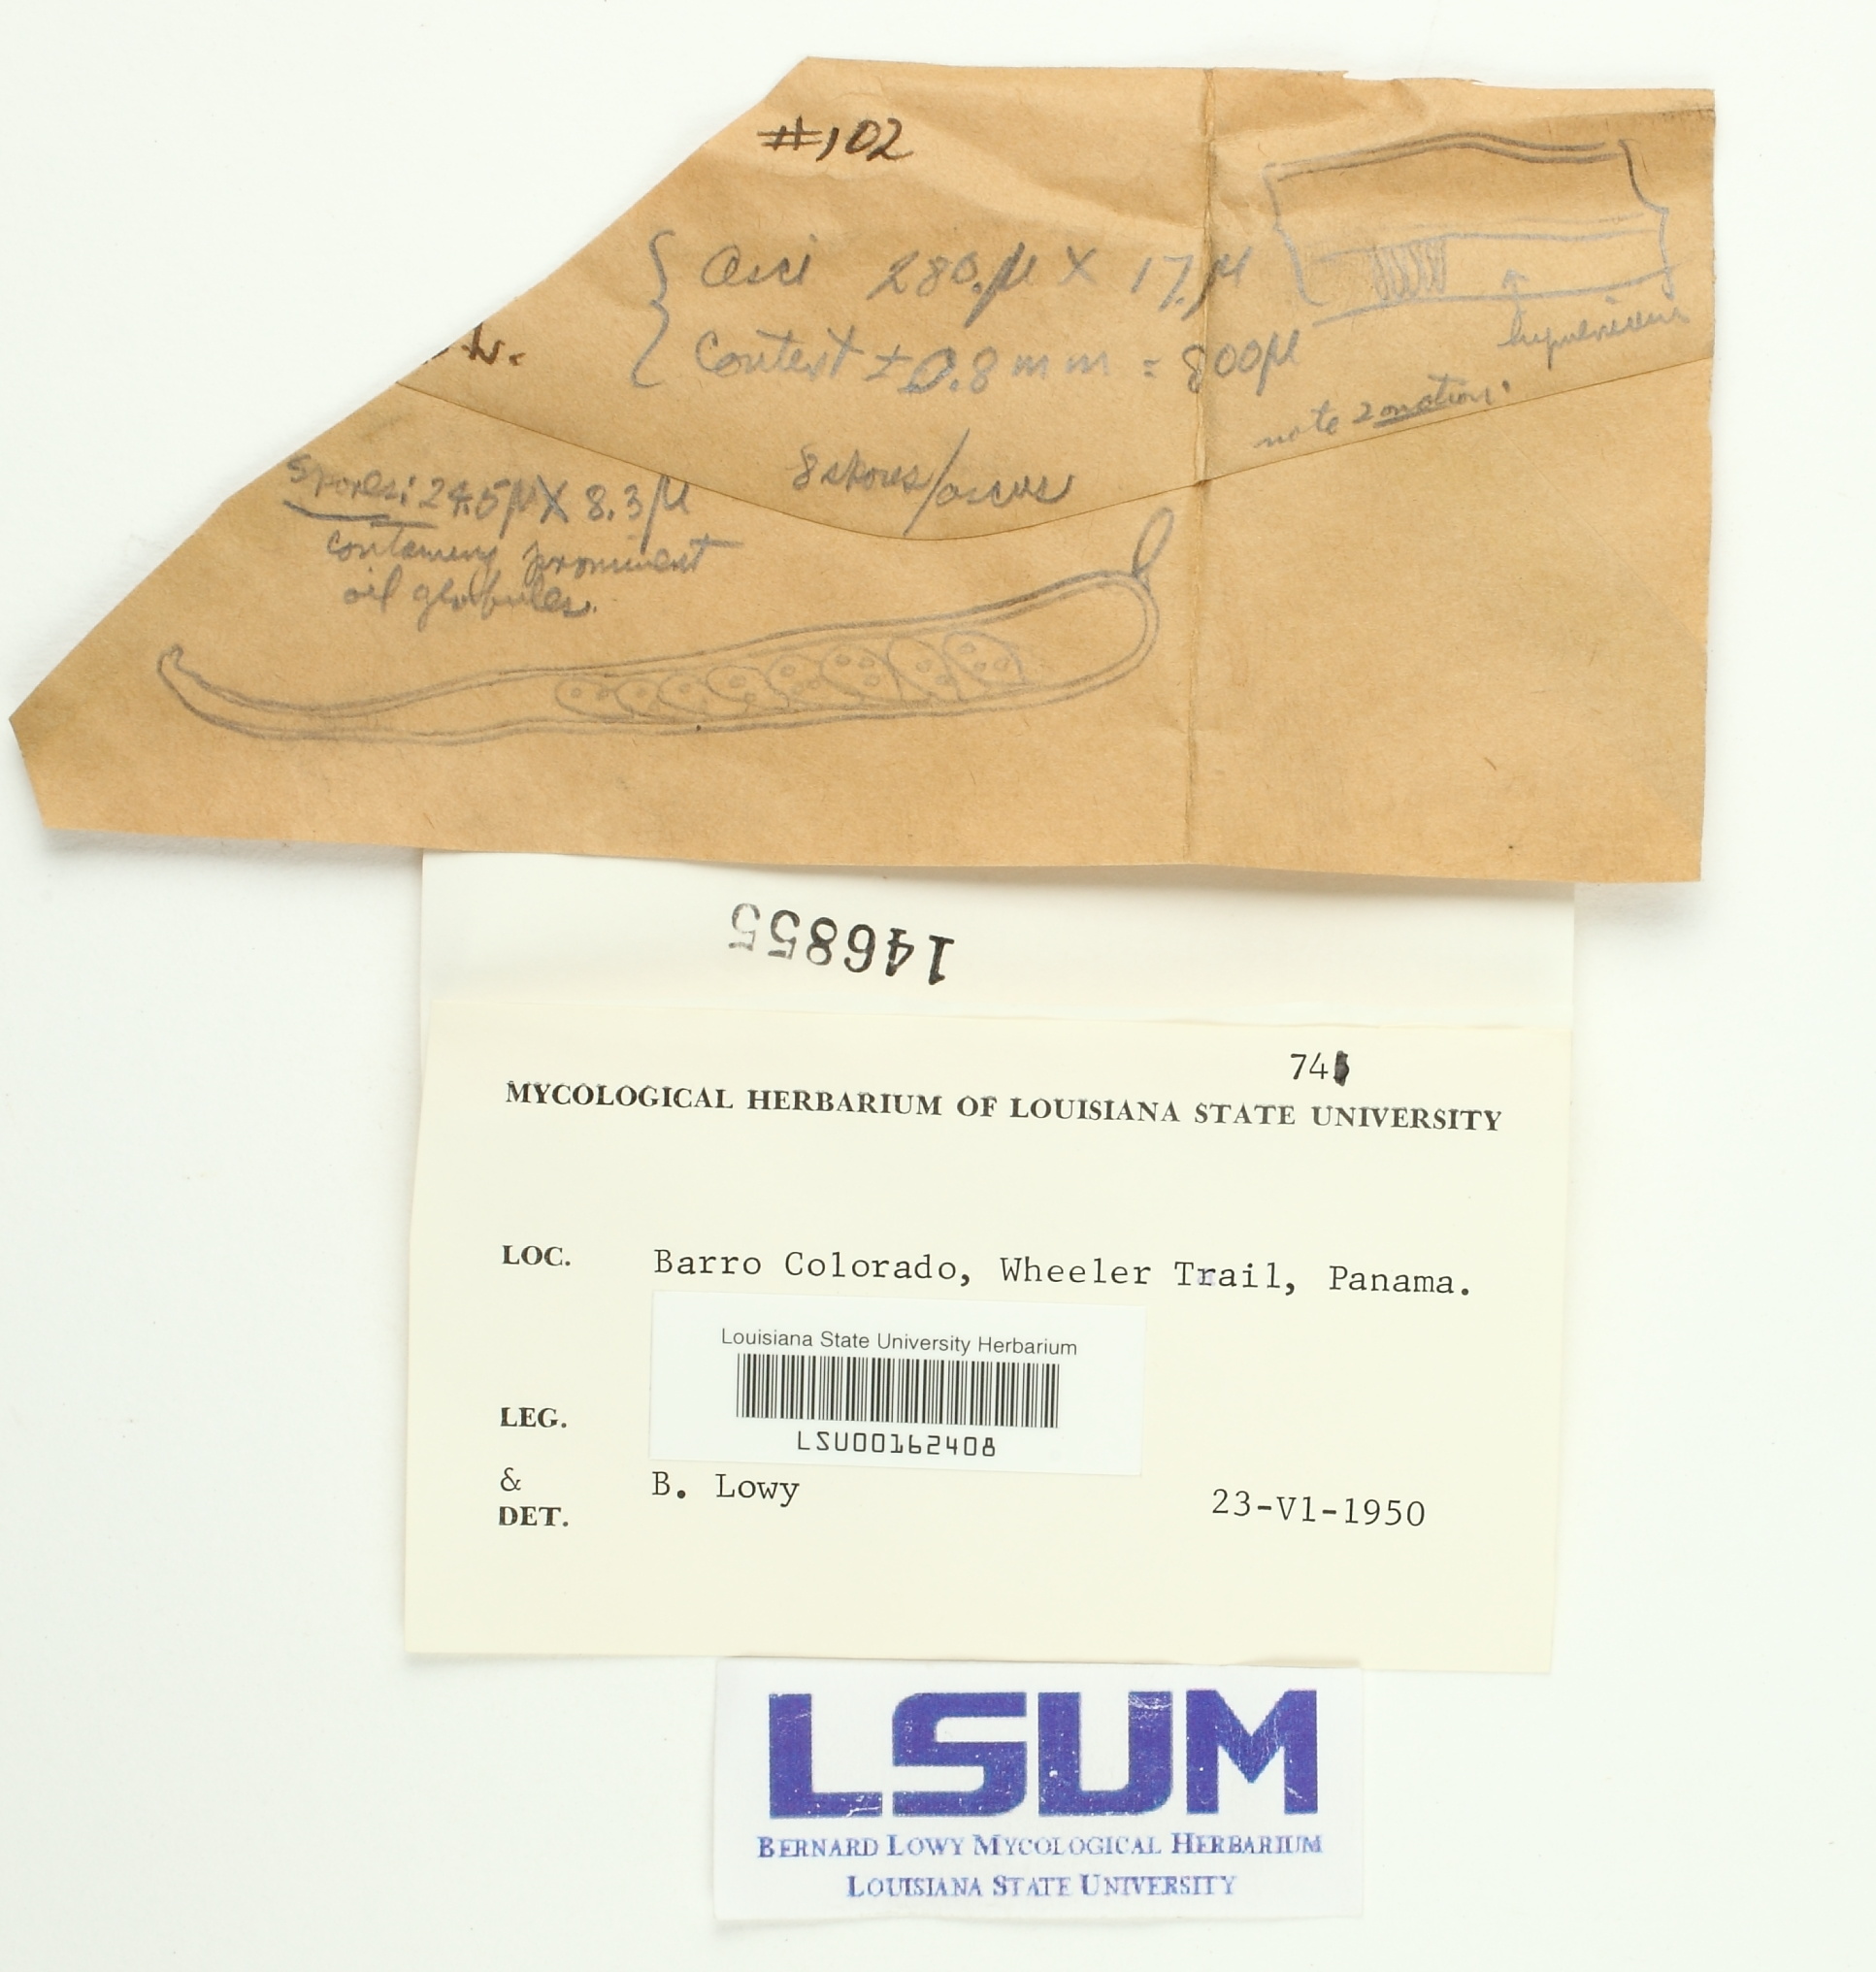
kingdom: Fungi
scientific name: Fungi
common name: Fungi
